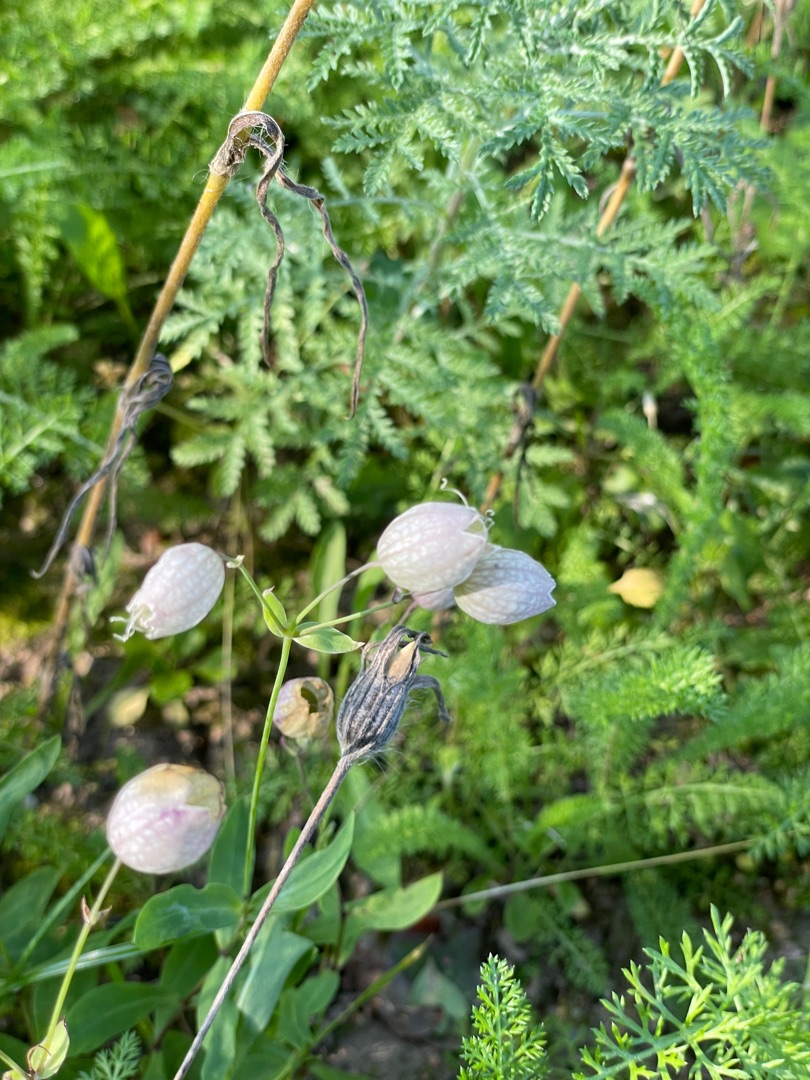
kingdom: Plantae
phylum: Tracheophyta
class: Magnoliopsida
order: Caryophyllales
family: Caryophyllaceae
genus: Silene
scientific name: Silene vulgaris
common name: Blæresmælde
